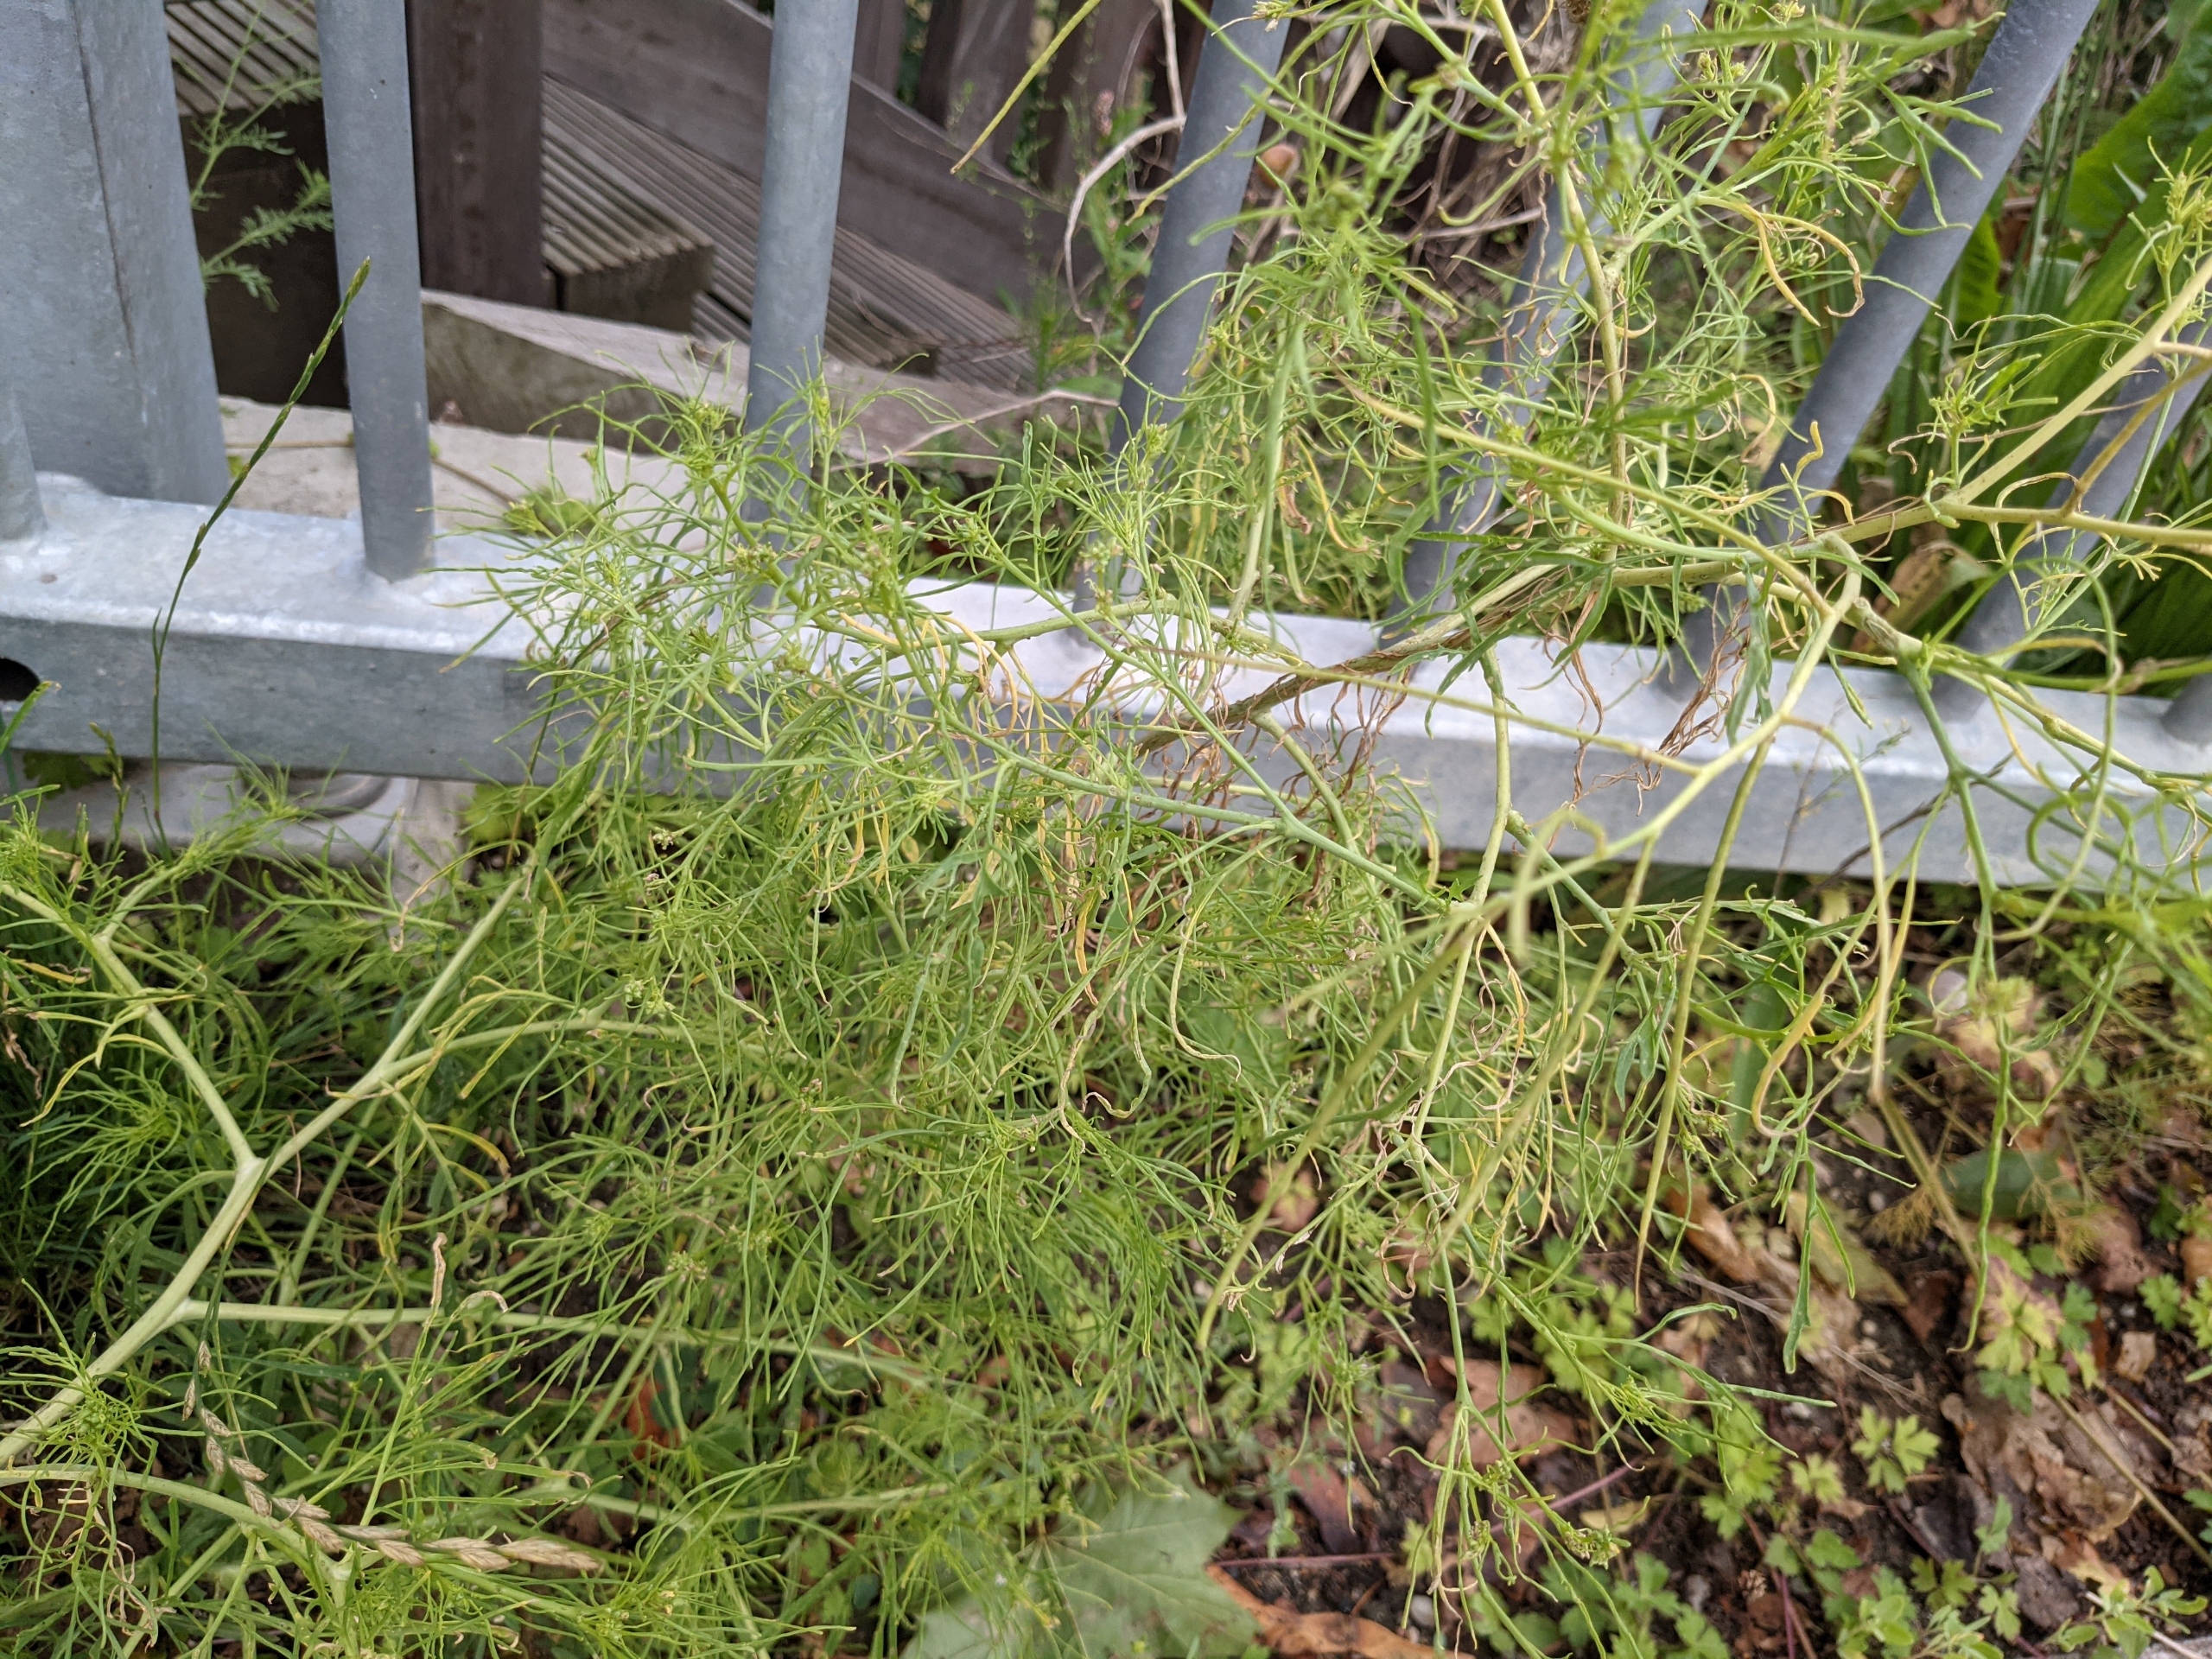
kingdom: Plantae
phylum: Tracheophyta
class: Magnoliopsida
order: Brassicales
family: Brassicaceae
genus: Sisymbrium
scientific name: Sisymbrium altissimum
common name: Ungarsk vejsennep
